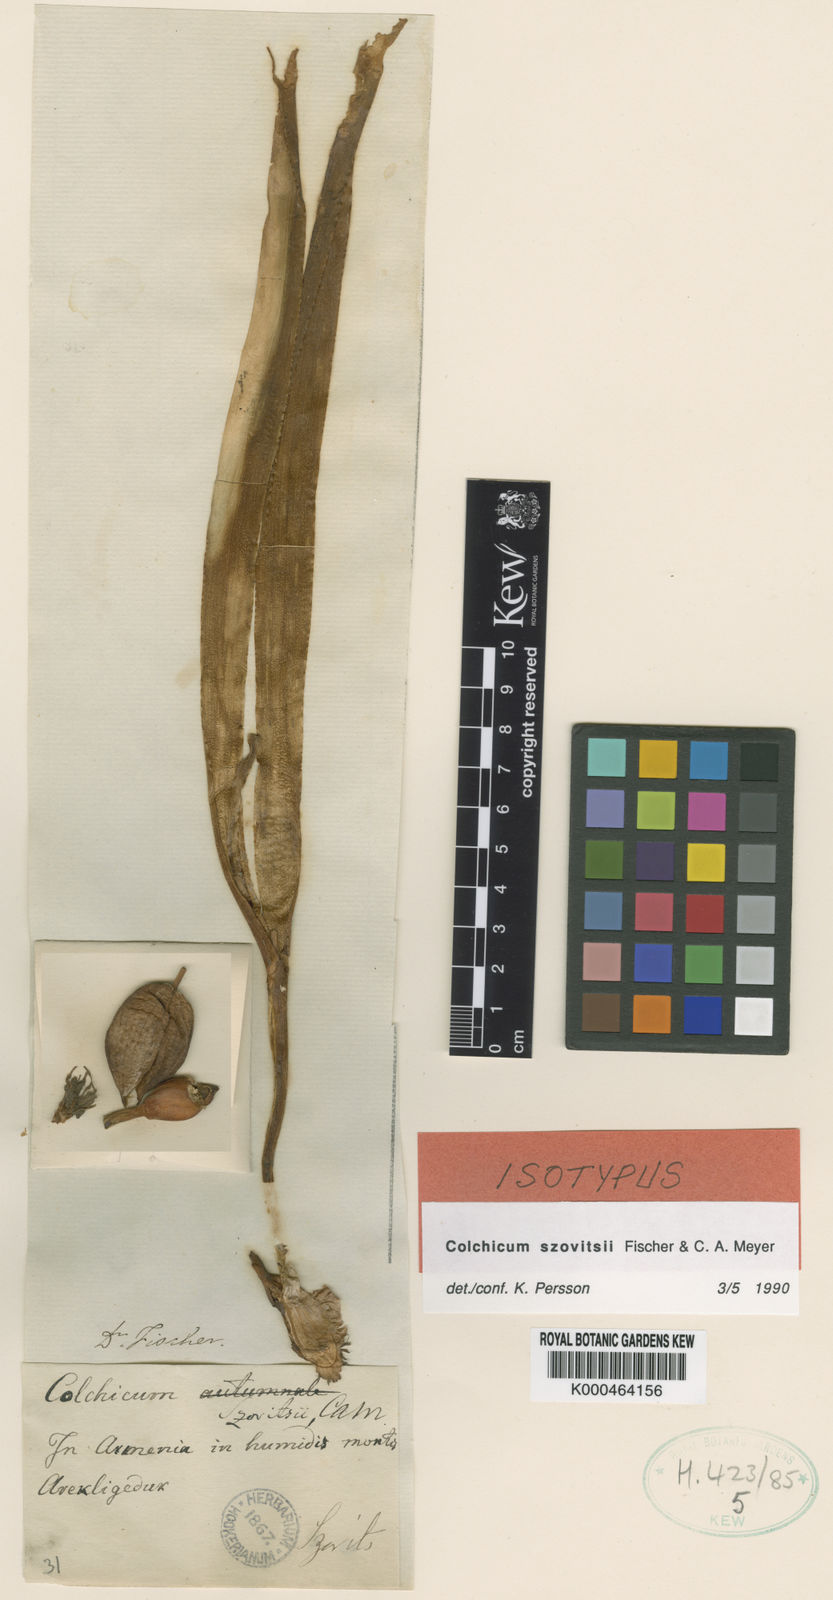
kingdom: Plantae
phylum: Tracheophyta
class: Liliopsida
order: Liliales
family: Colchicaceae
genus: Colchicum
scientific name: Colchicum szovitsii
